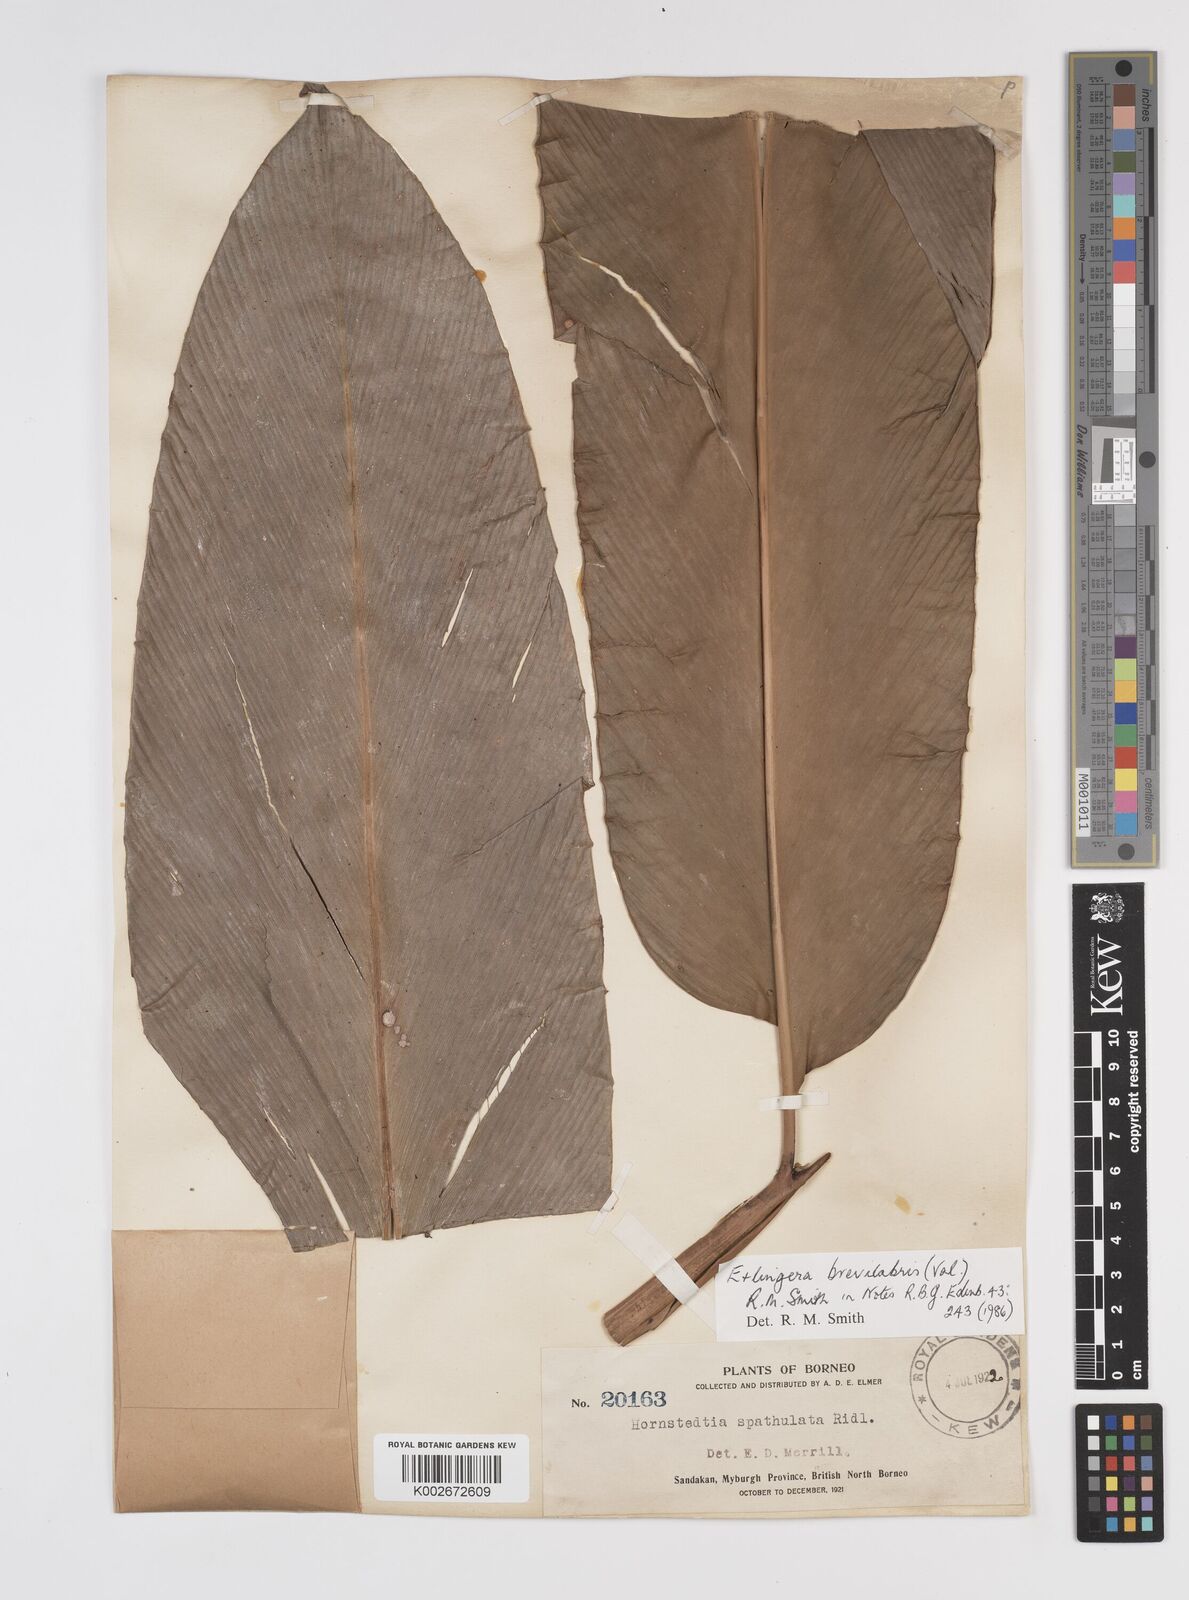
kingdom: Plantae
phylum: Tracheophyta
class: Liliopsida
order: Zingiberales
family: Zingiberaceae
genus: Etlingera
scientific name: Etlingera
